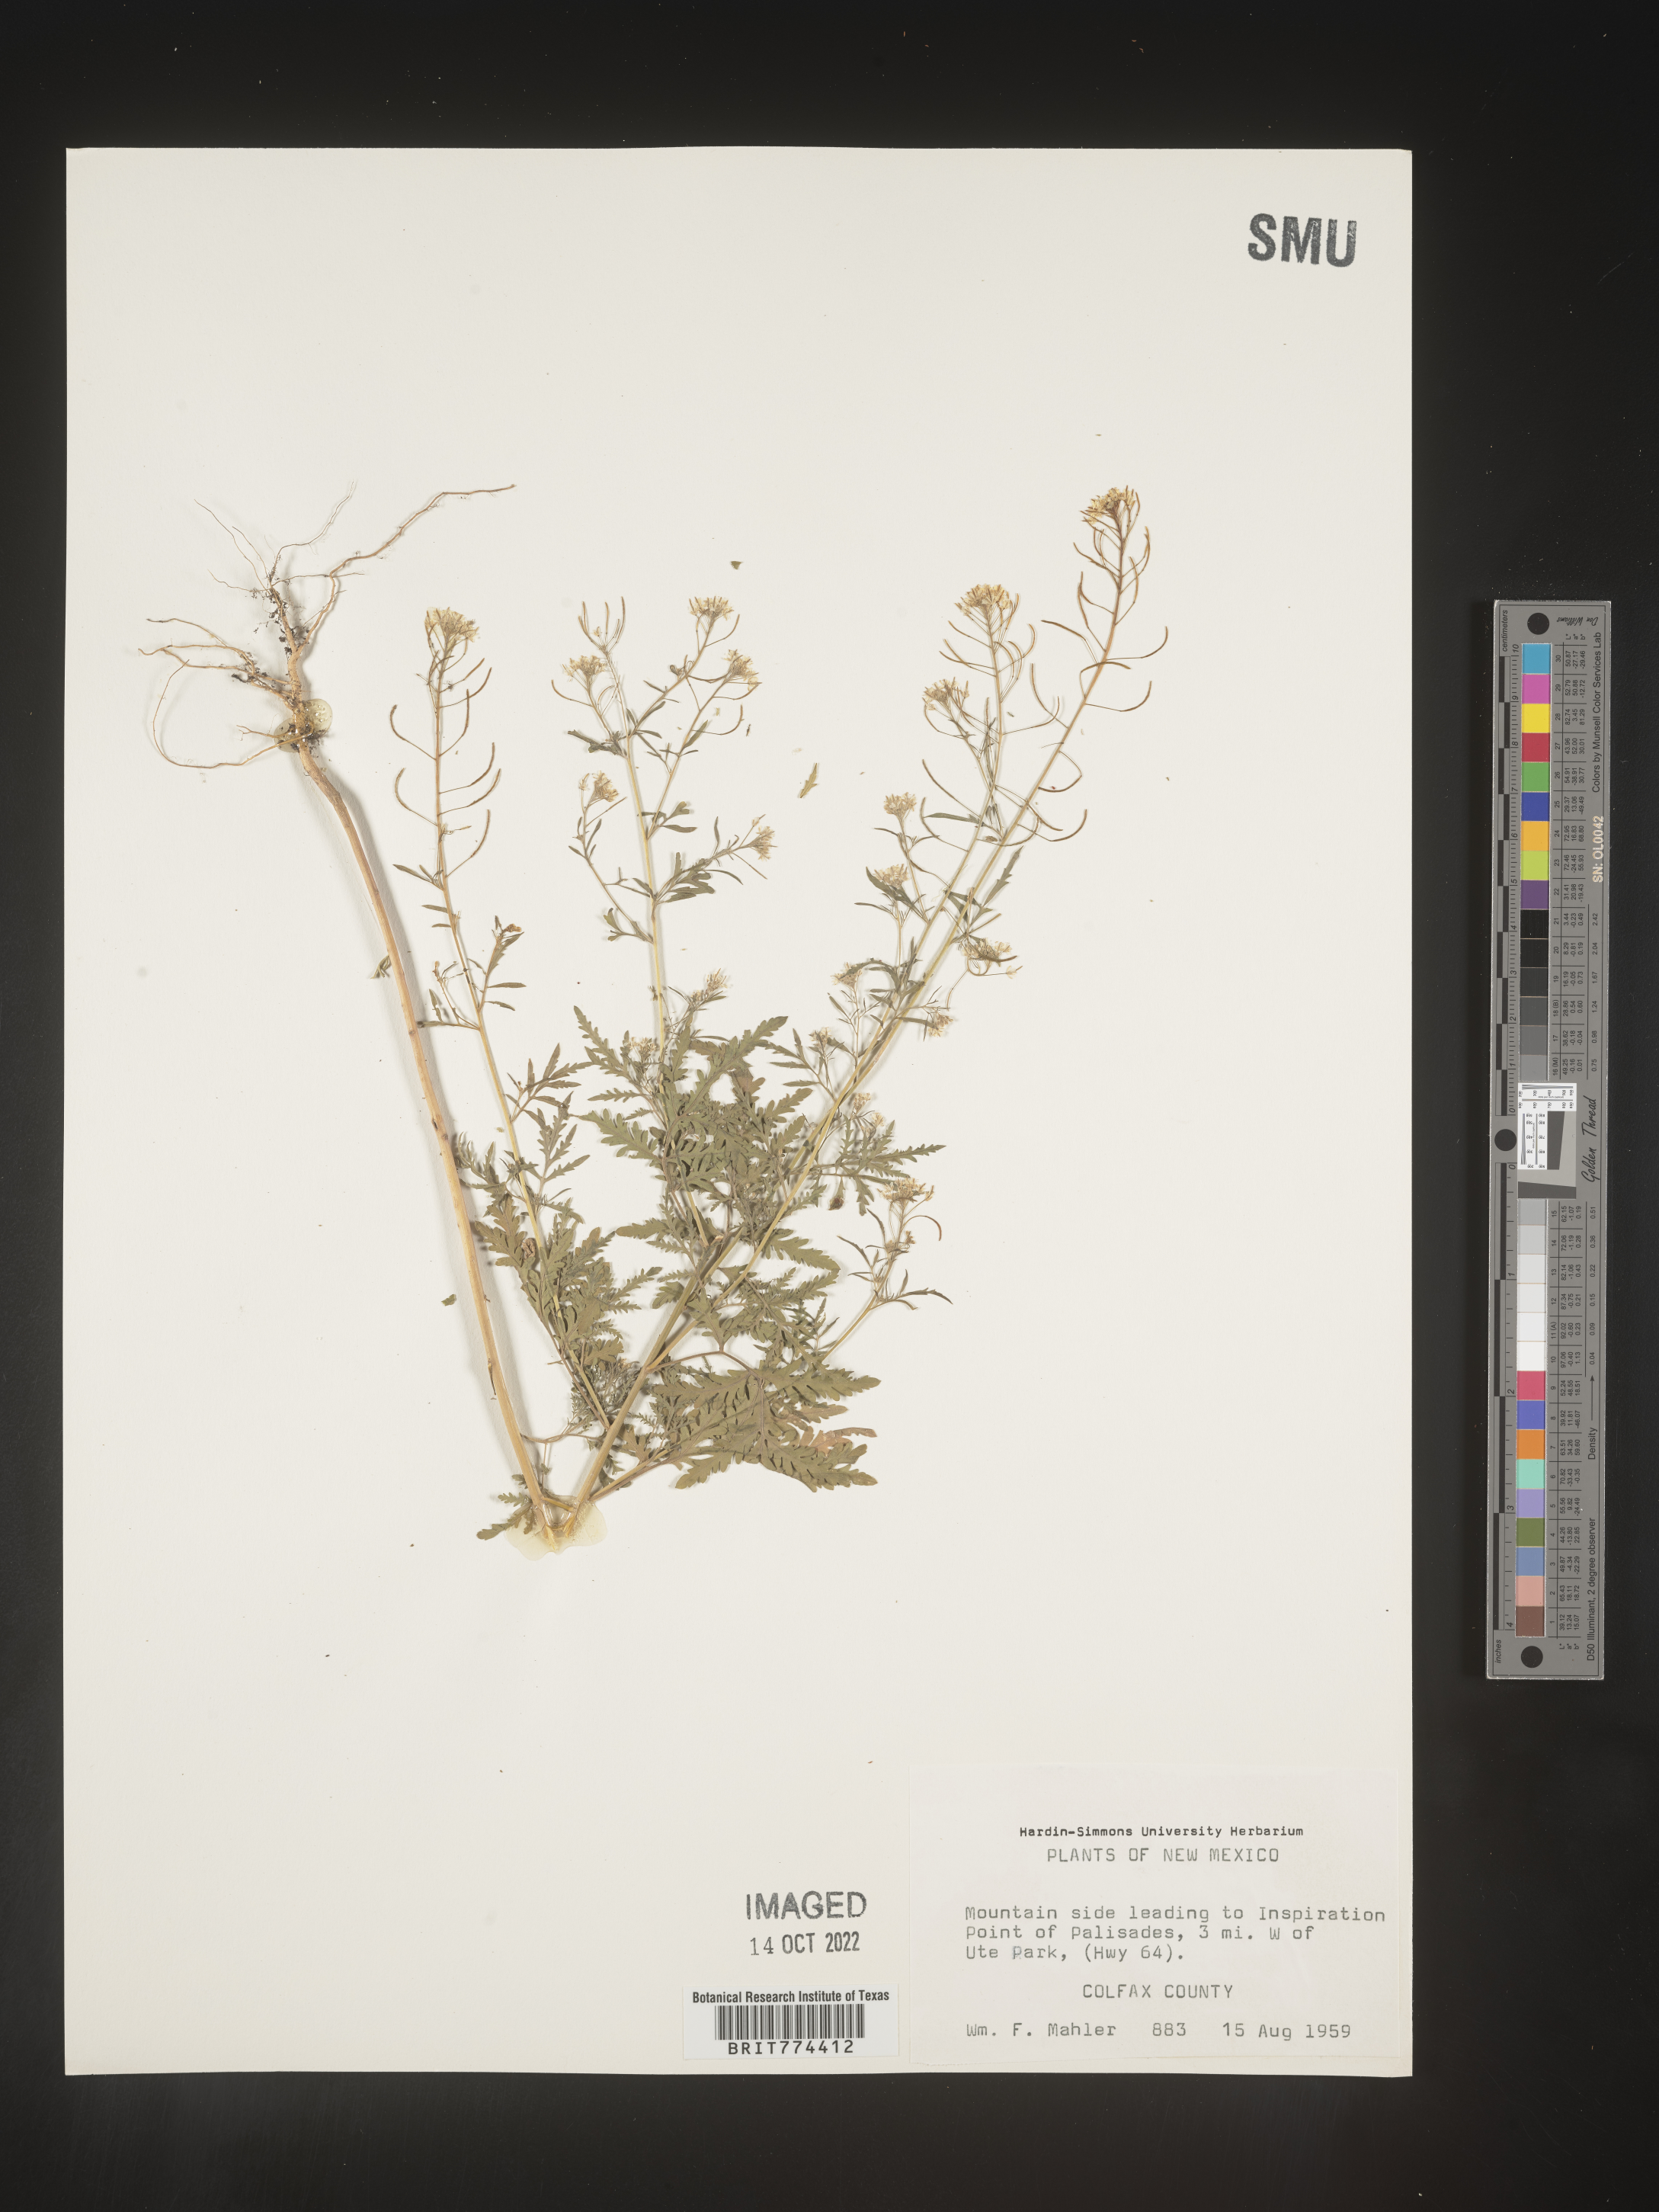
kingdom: Plantae
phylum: Tracheophyta
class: Magnoliopsida
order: Brassicales
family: Brassicaceae
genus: Descurainia
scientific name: Descurainia
